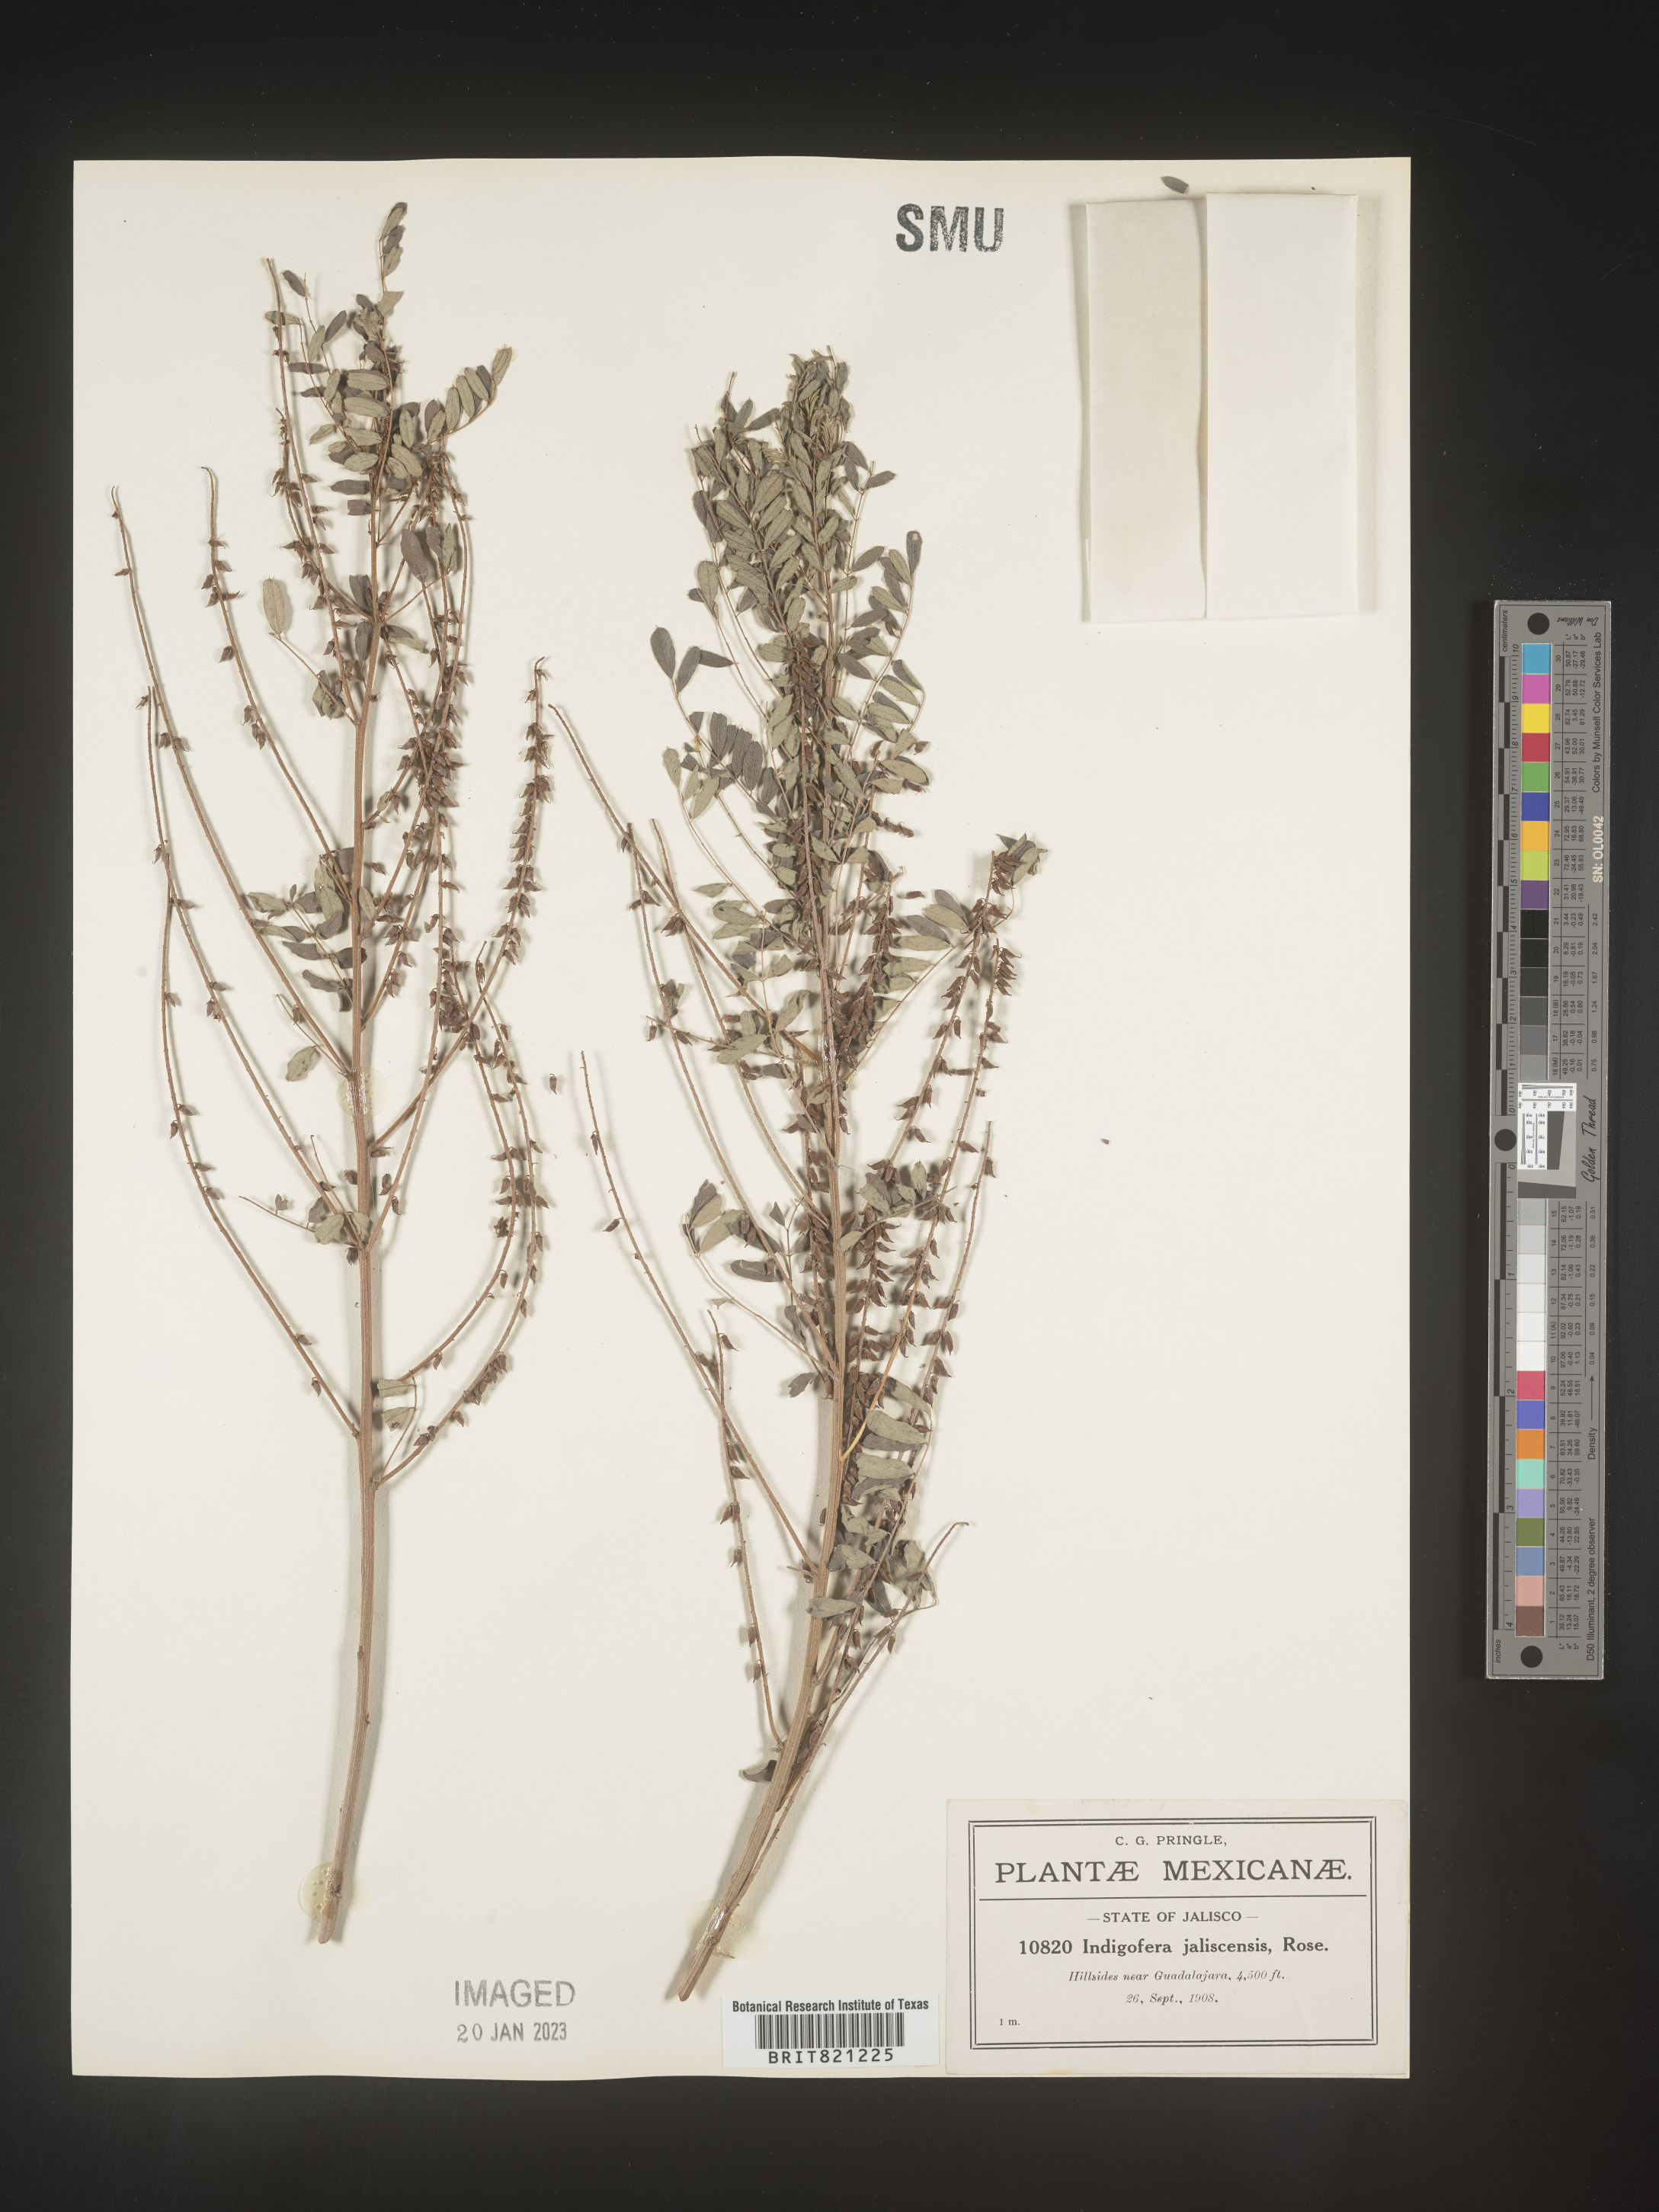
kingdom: Plantae
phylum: Tracheophyta
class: Magnoliopsida
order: Fabales
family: Fabaceae
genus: Indigofera
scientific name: Indigofera
